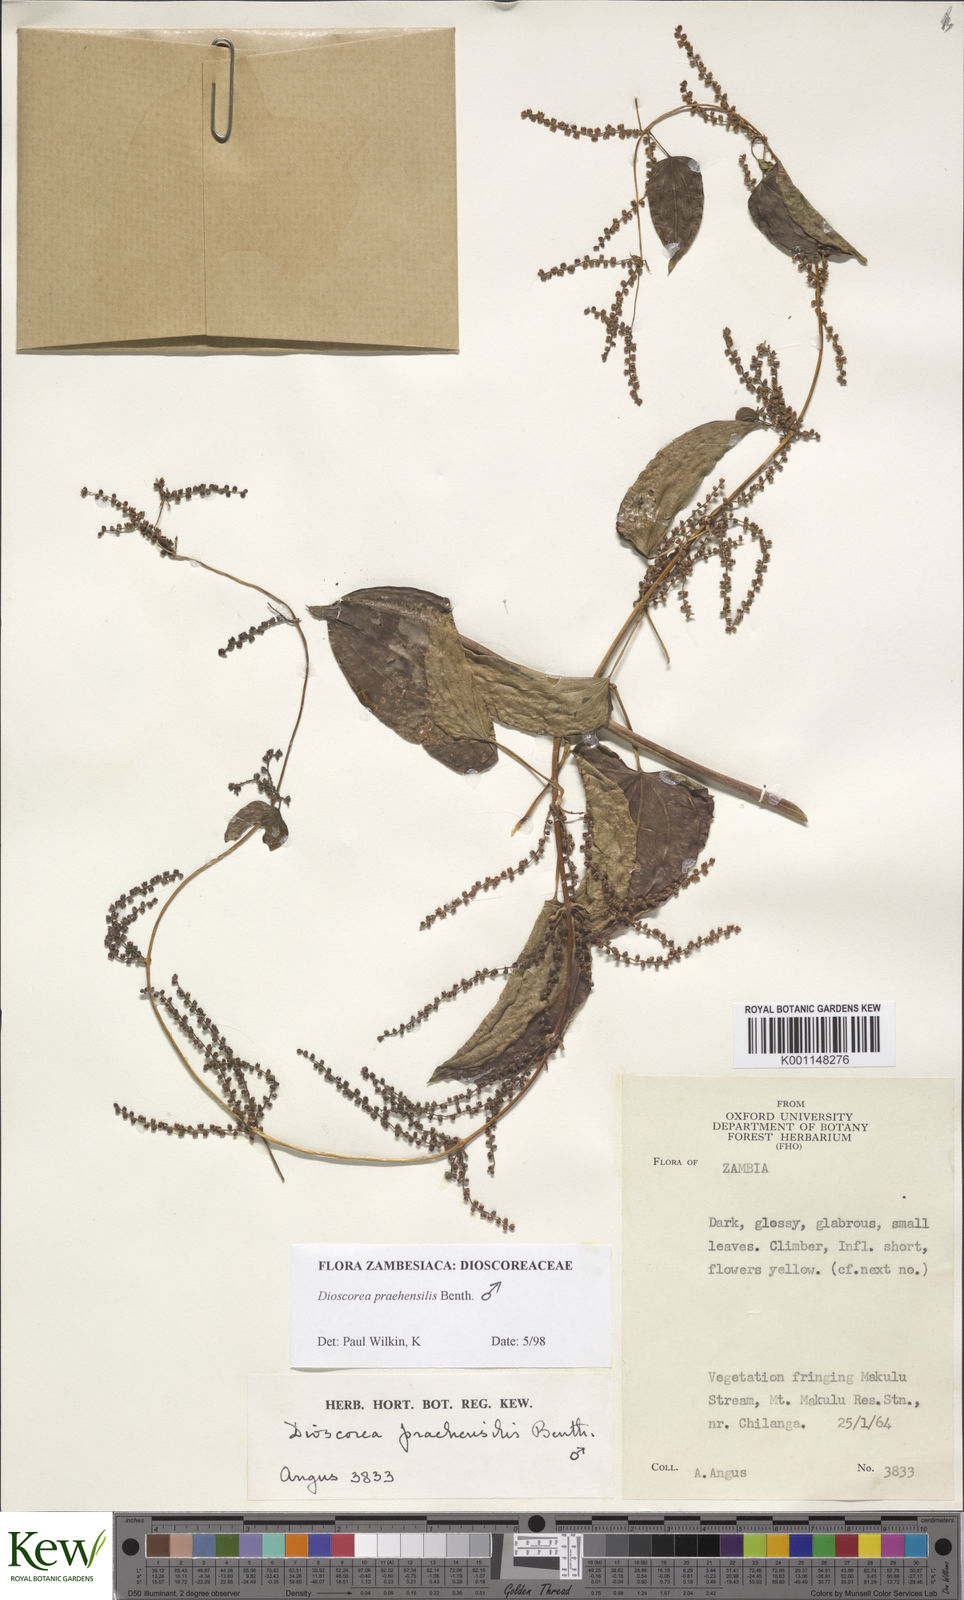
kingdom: Plantae
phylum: Tracheophyta
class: Liliopsida
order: Dioscoreales
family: Dioscoreaceae
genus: Dioscorea
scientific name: Dioscorea praehensilis
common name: Bush yam
